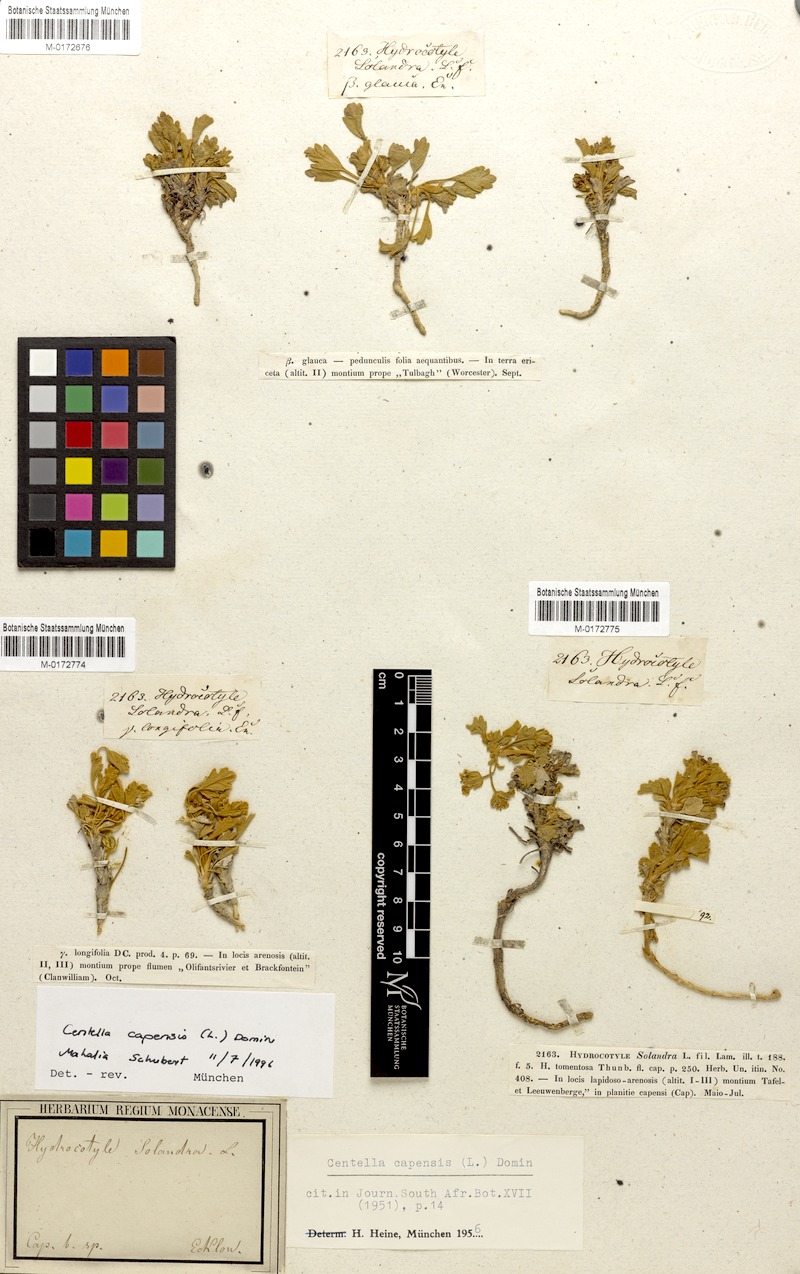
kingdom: Plantae
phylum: Tracheophyta
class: Magnoliopsida
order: Apiales
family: Apiaceae
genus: Centella
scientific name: Centella capensis
